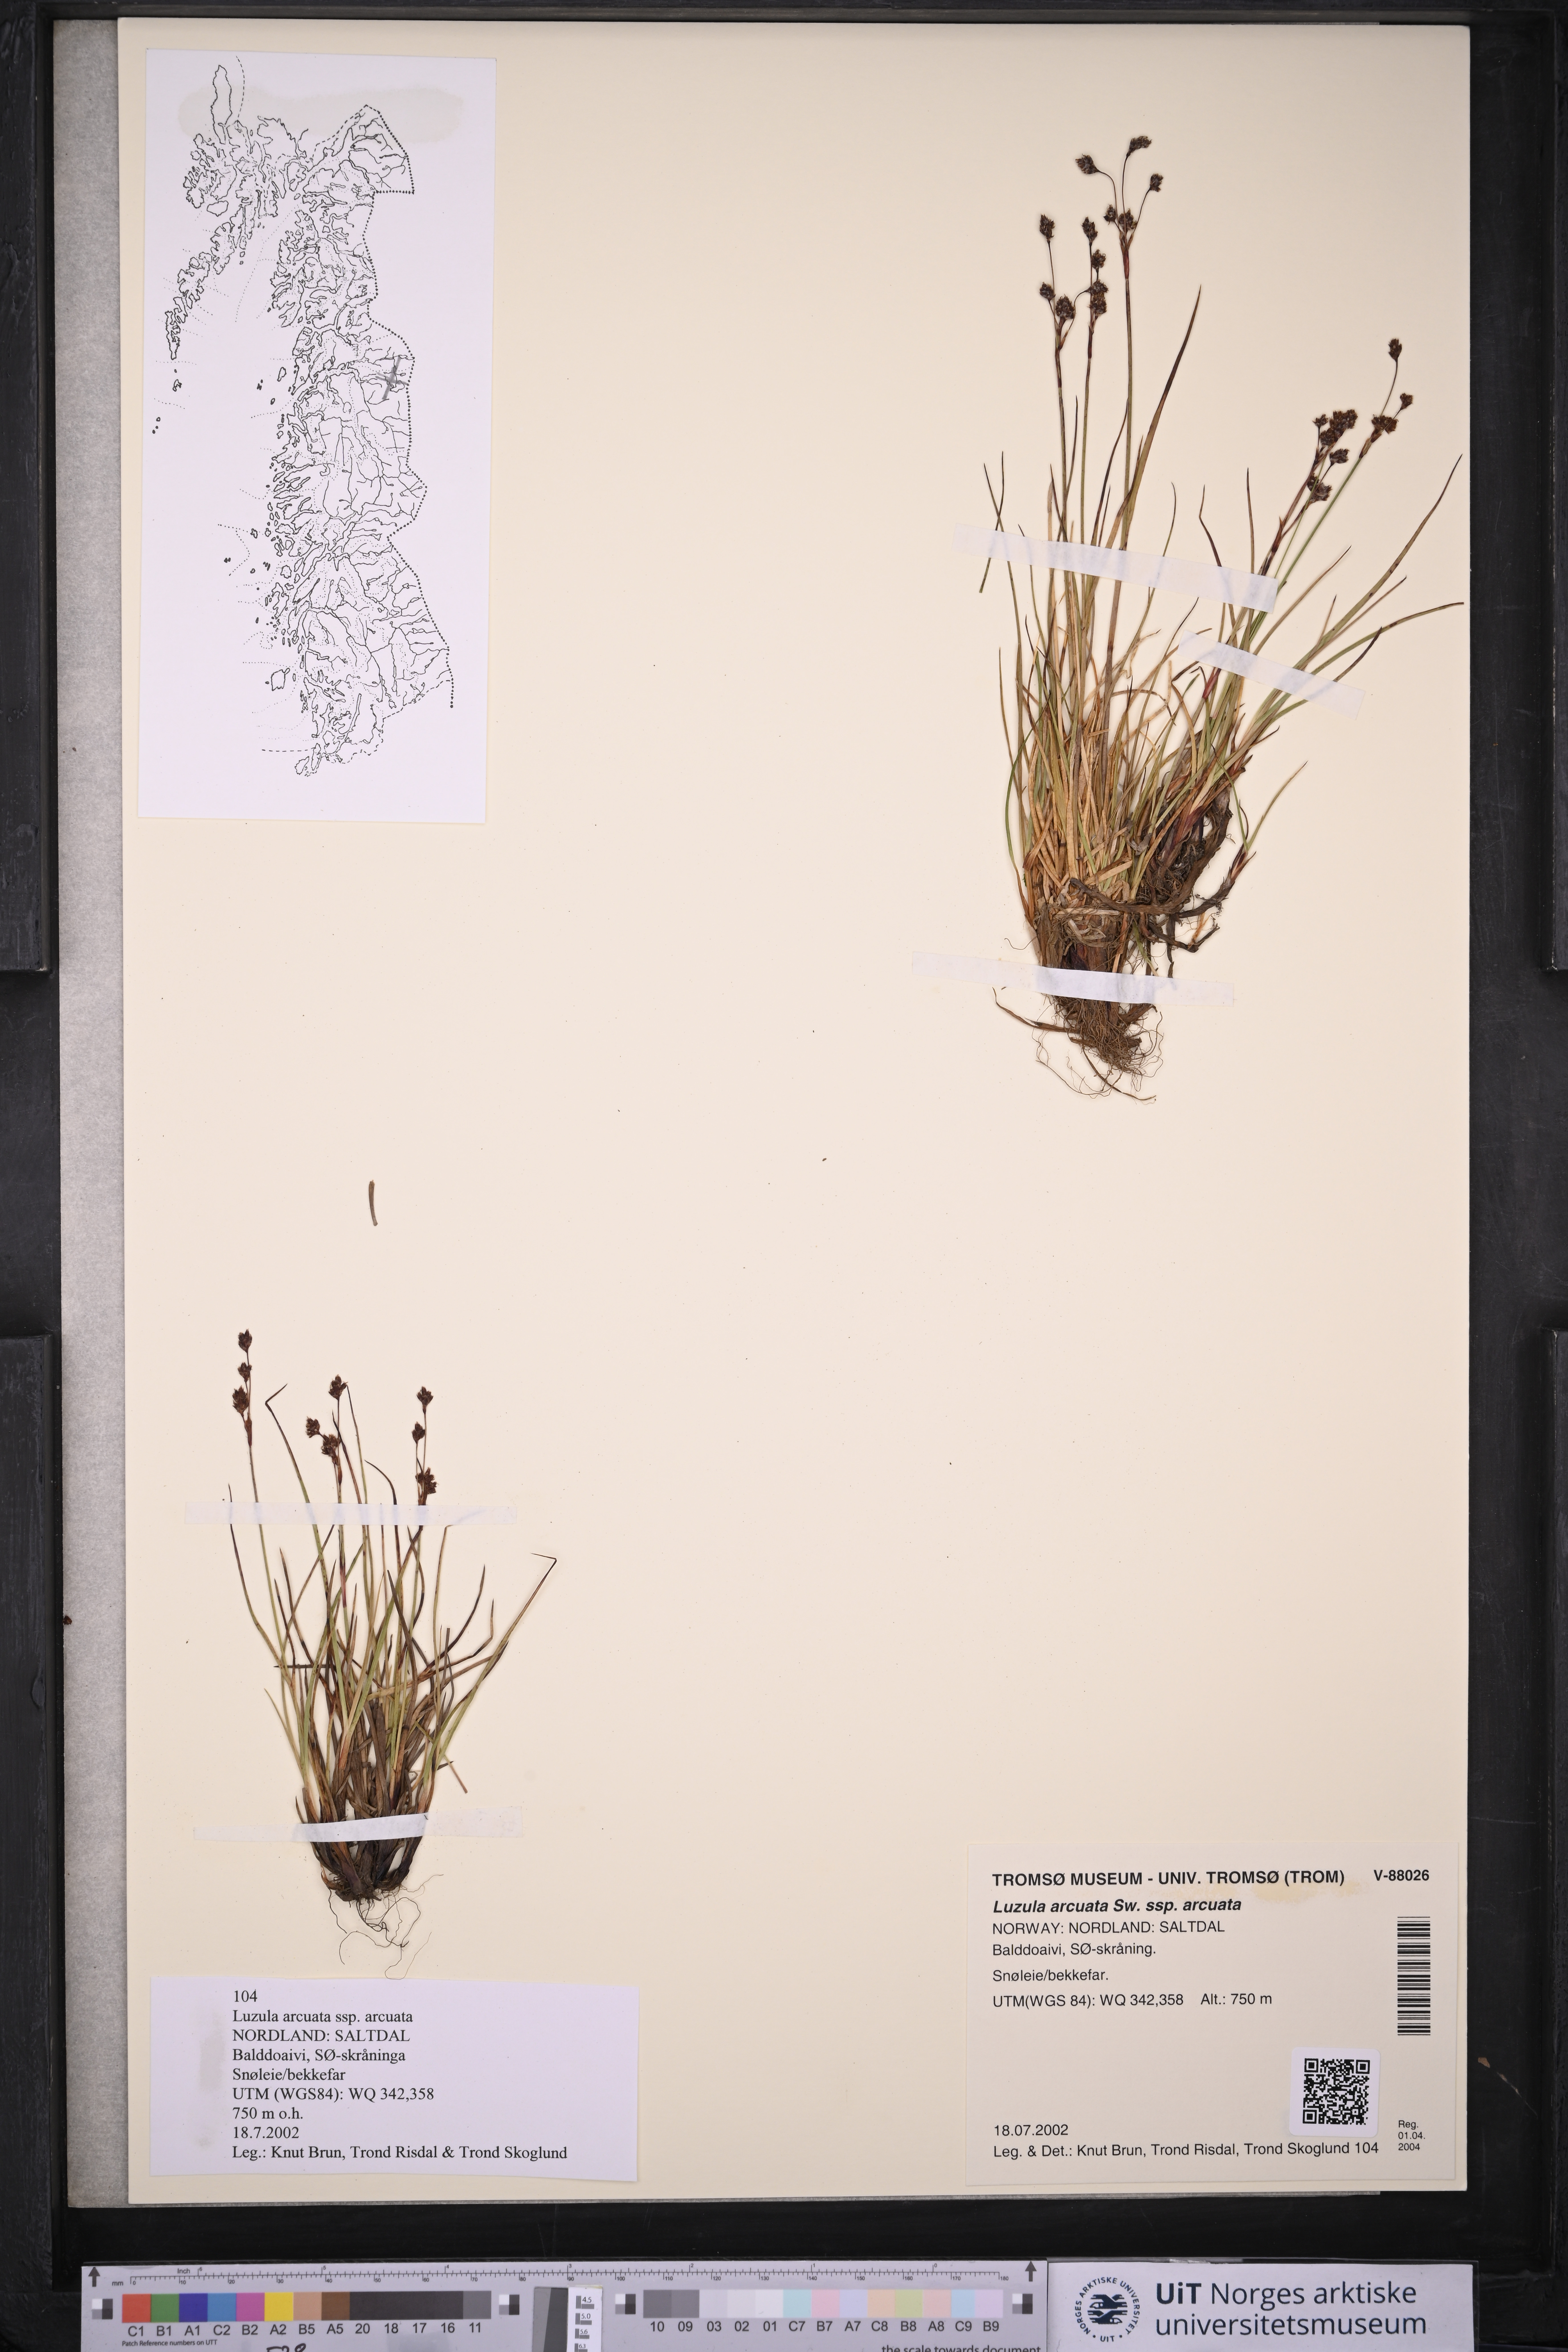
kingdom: Plantae
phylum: Tracheophyta
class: Liliopsida
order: Poales
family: Juncaceae
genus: Luzula
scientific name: Luzula arcuata
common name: Curved wood-rush
